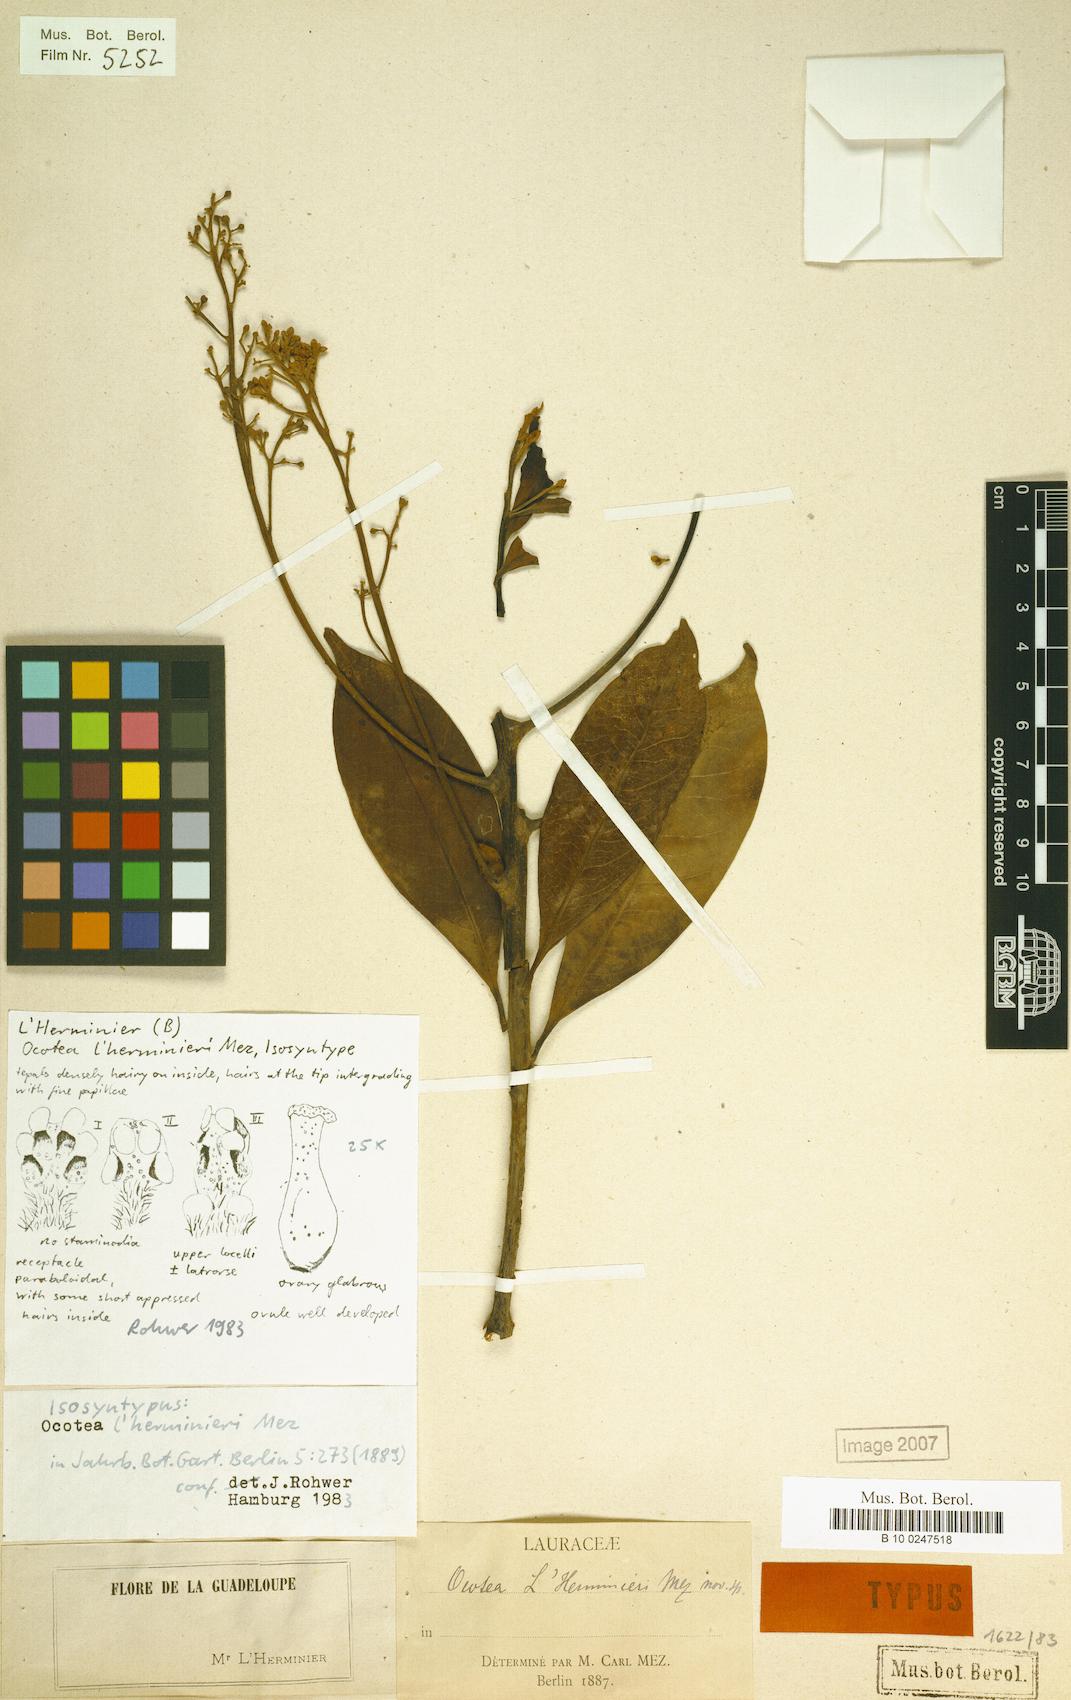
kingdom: Plantae
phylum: Tracheophyta
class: Magnoliopsida
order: Laurales
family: Lauraceae
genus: Ocotea
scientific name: Ocotea lherminieri
